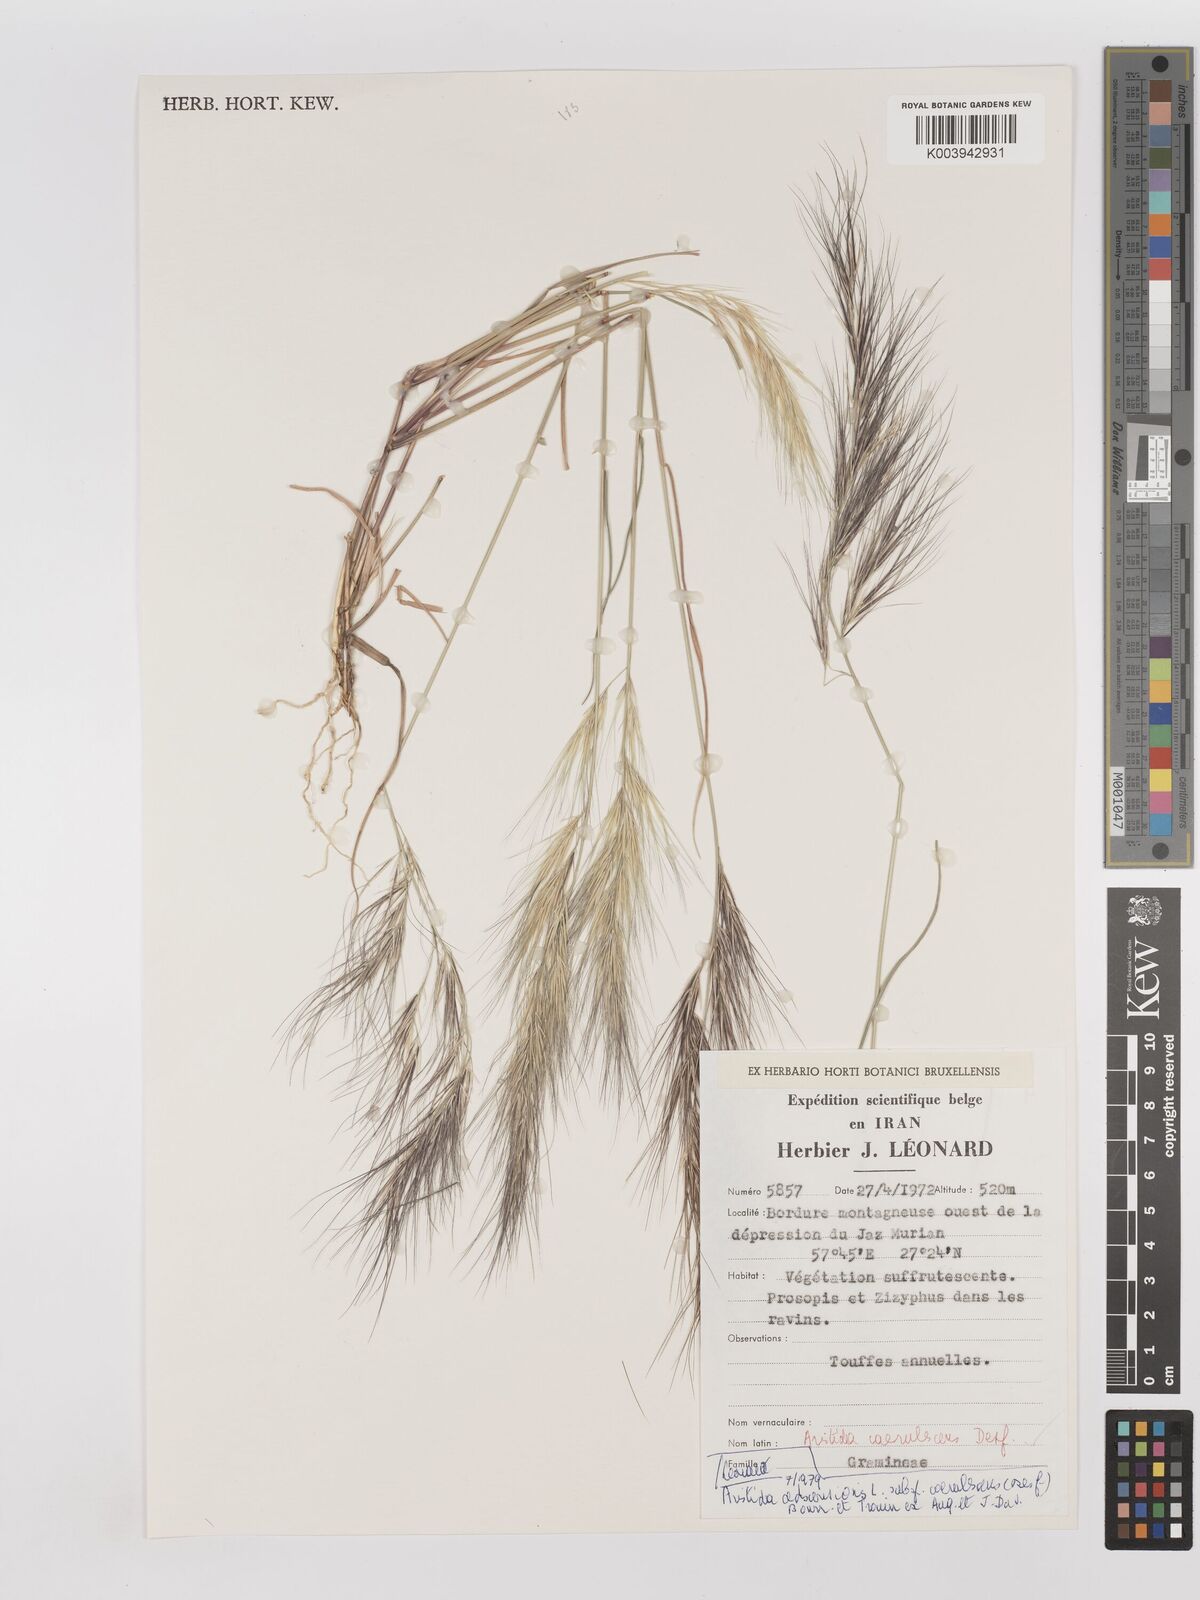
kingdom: Plantae
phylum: Tracheophyta
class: Liliopsida
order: Poales
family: Poaceae
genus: Aristida
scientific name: Aristida adscensionis
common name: Sixweeks threeawn
